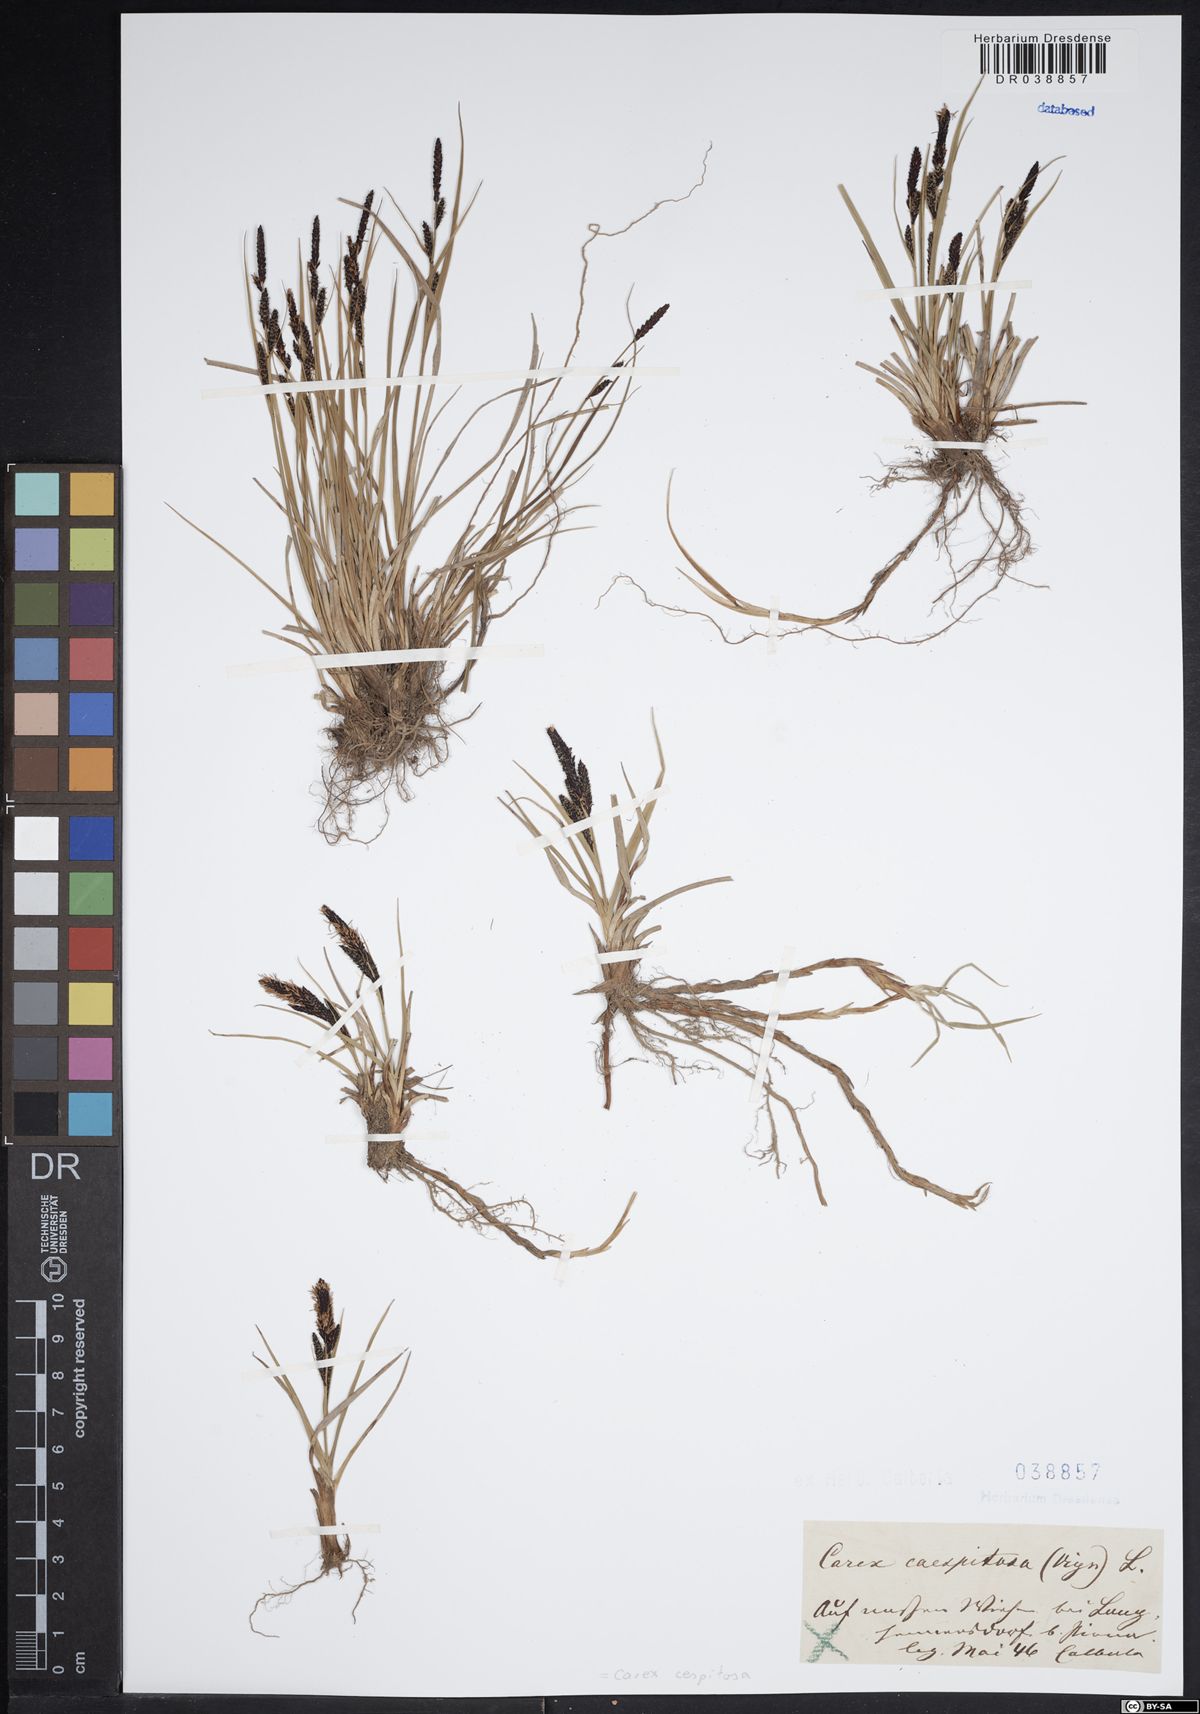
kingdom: Plantae
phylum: Tracheophyta
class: Liliopsida
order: Poales
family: Cyperaceae
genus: Carex
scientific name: Carex cespitosa
